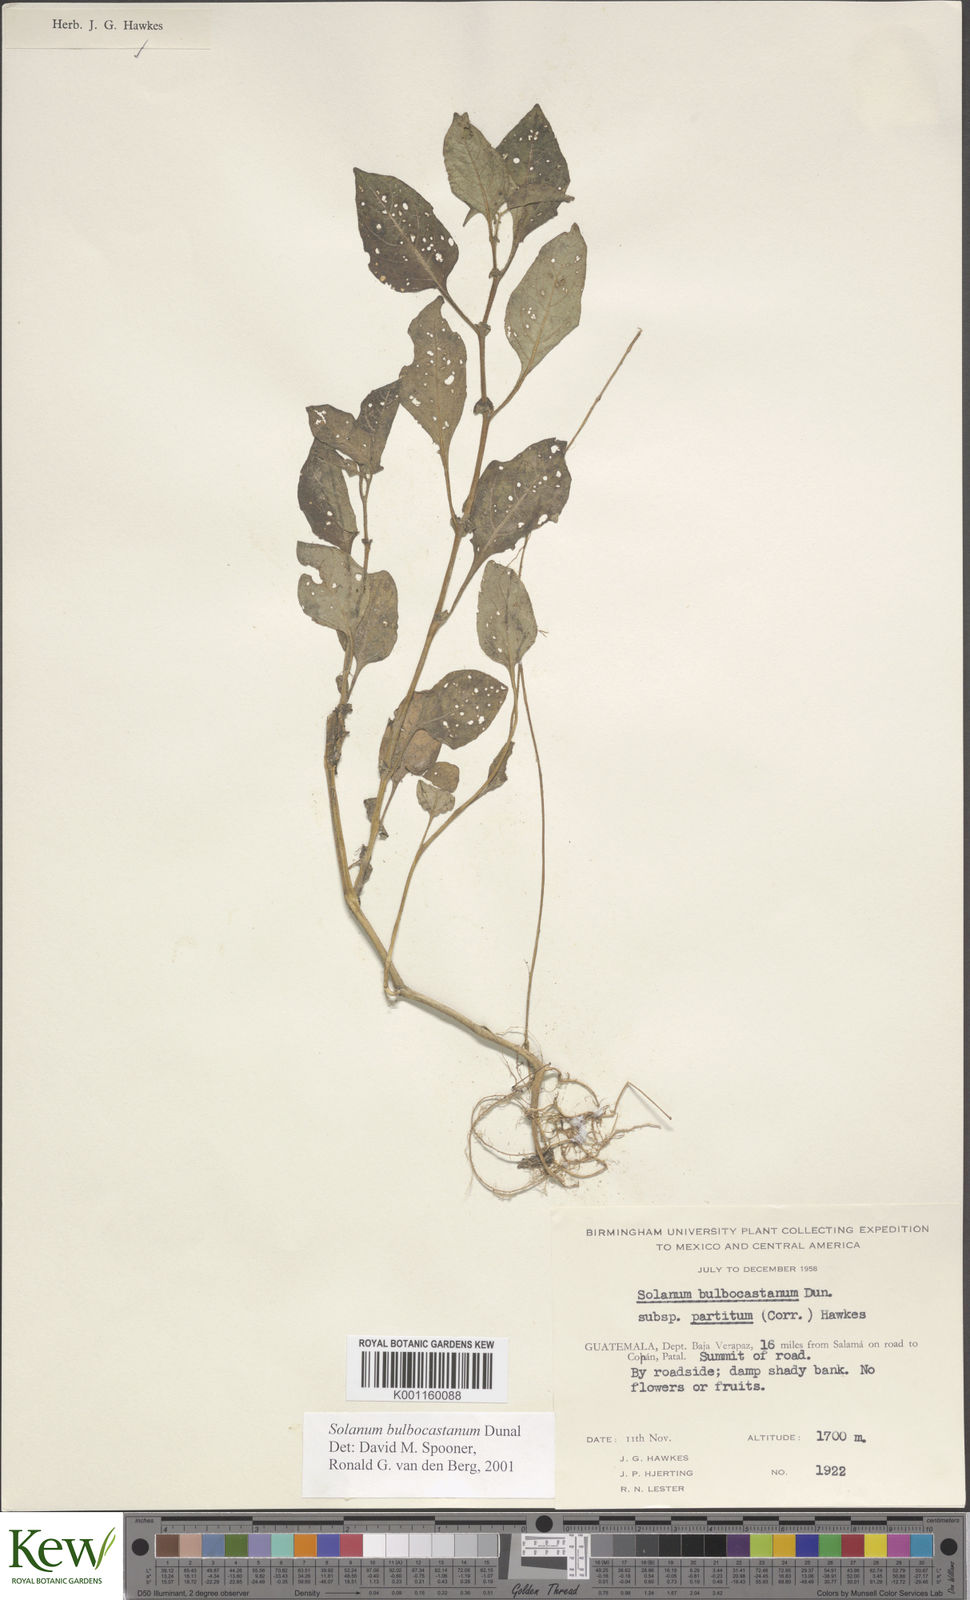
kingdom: Plantae
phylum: Tracheophyta
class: Magnoliopsida
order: Solanales
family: Solanaceae
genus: Solanum
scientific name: Solanum bulbocastanum
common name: Ornamental nightshade
